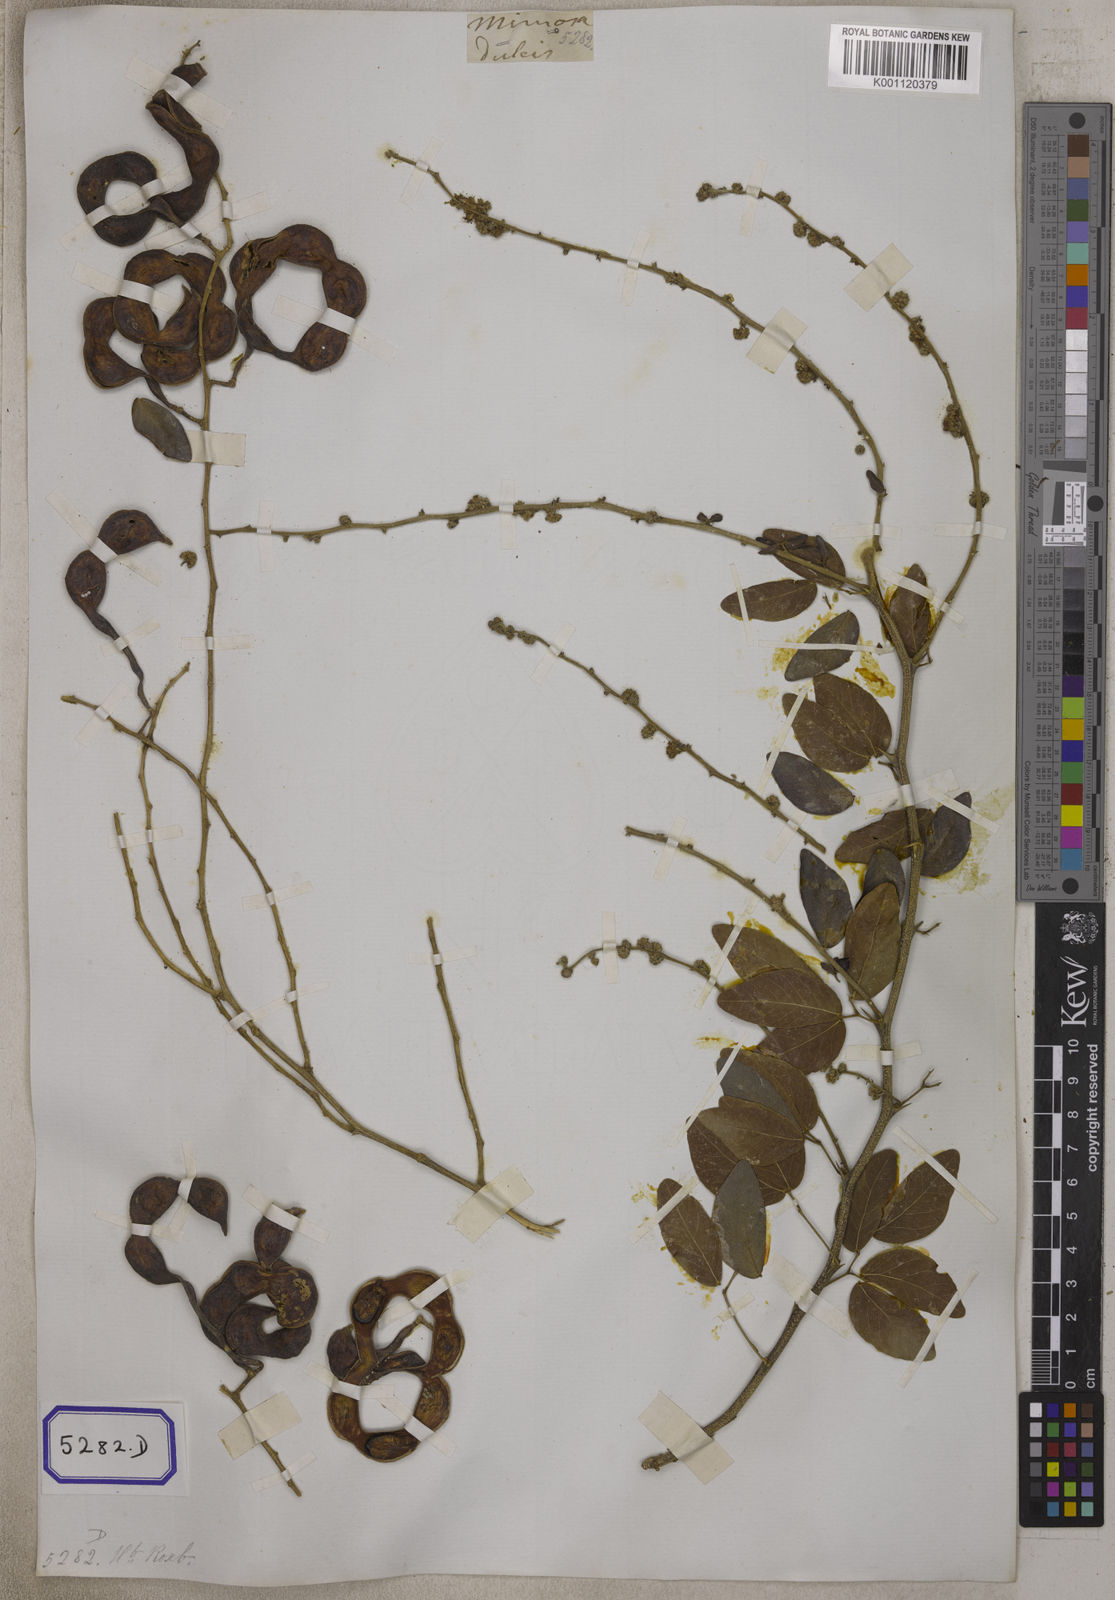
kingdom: Plantae
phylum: Tracheophyta
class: Magnoliopsida
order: Fabales
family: Fabaceae
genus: Pithecellobium
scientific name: Pithecellobium dulce
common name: Monkeypod
